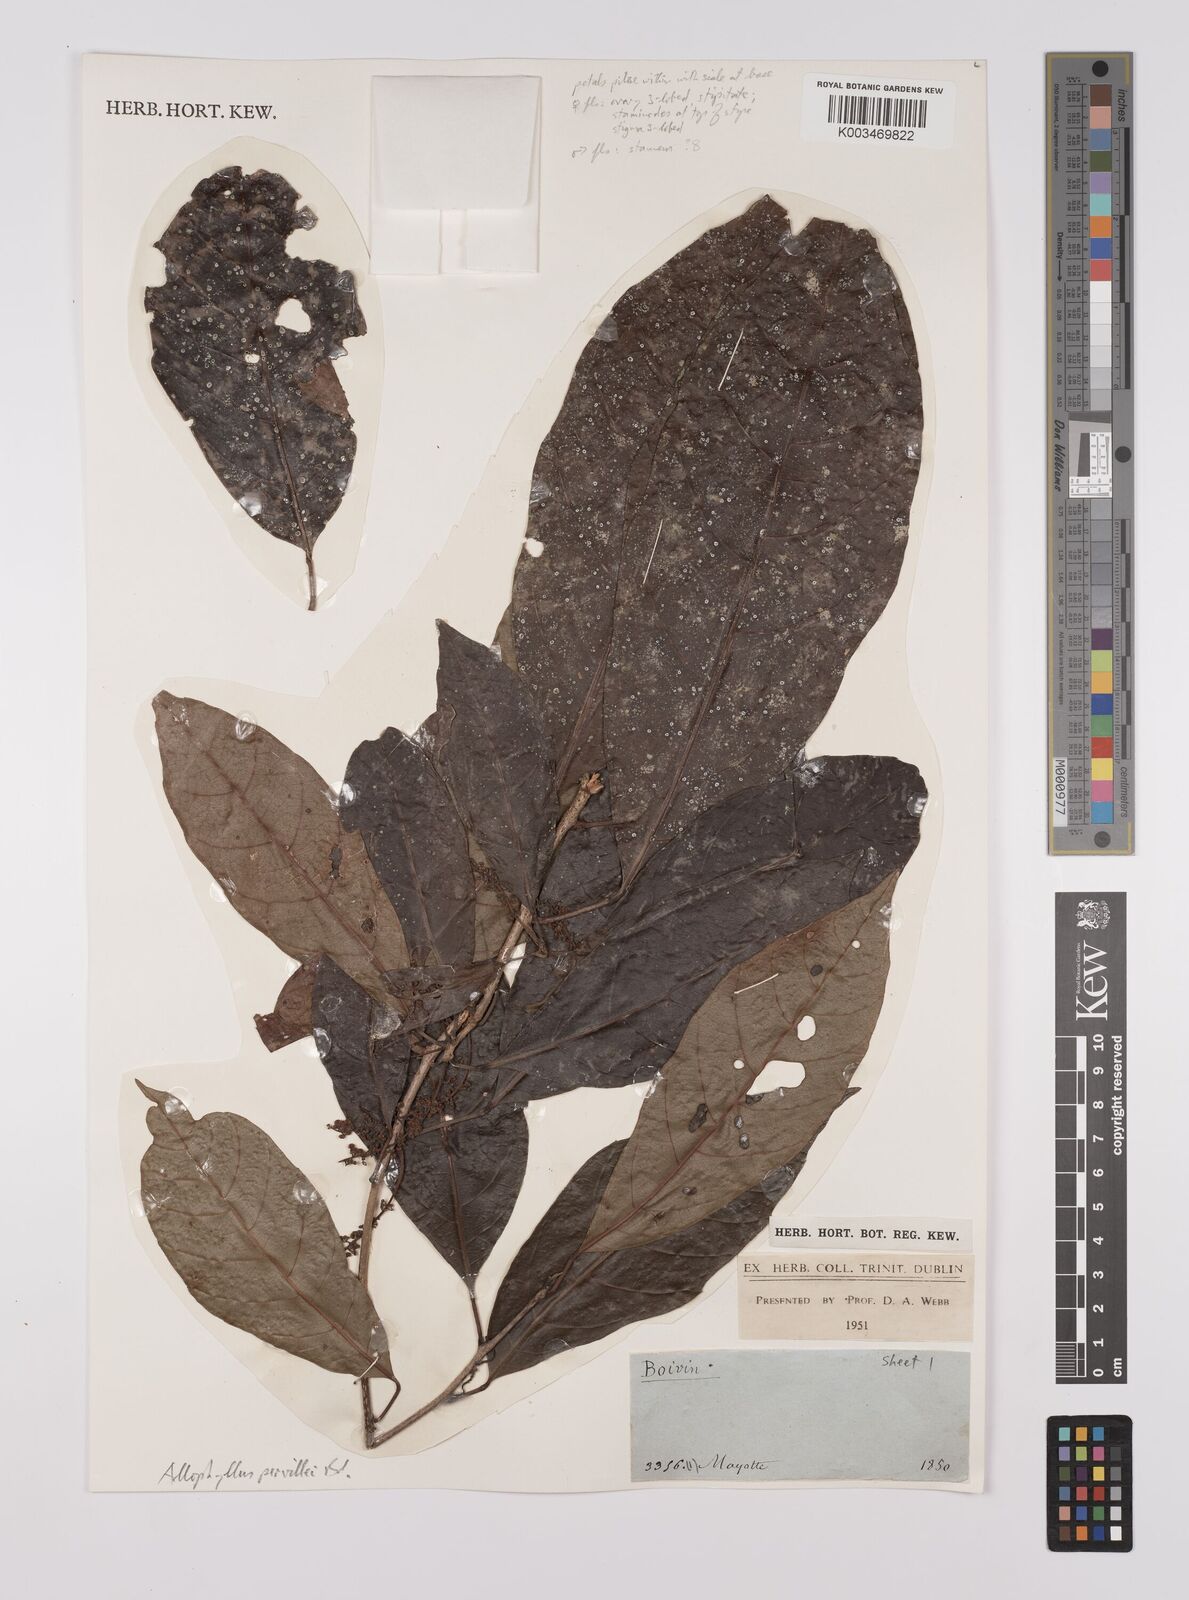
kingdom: Plantae
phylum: Tracheophyta
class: Magnoliopsida
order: Sapindales
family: Sapindaceae
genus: Allophylus
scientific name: Allophylus pervillei
